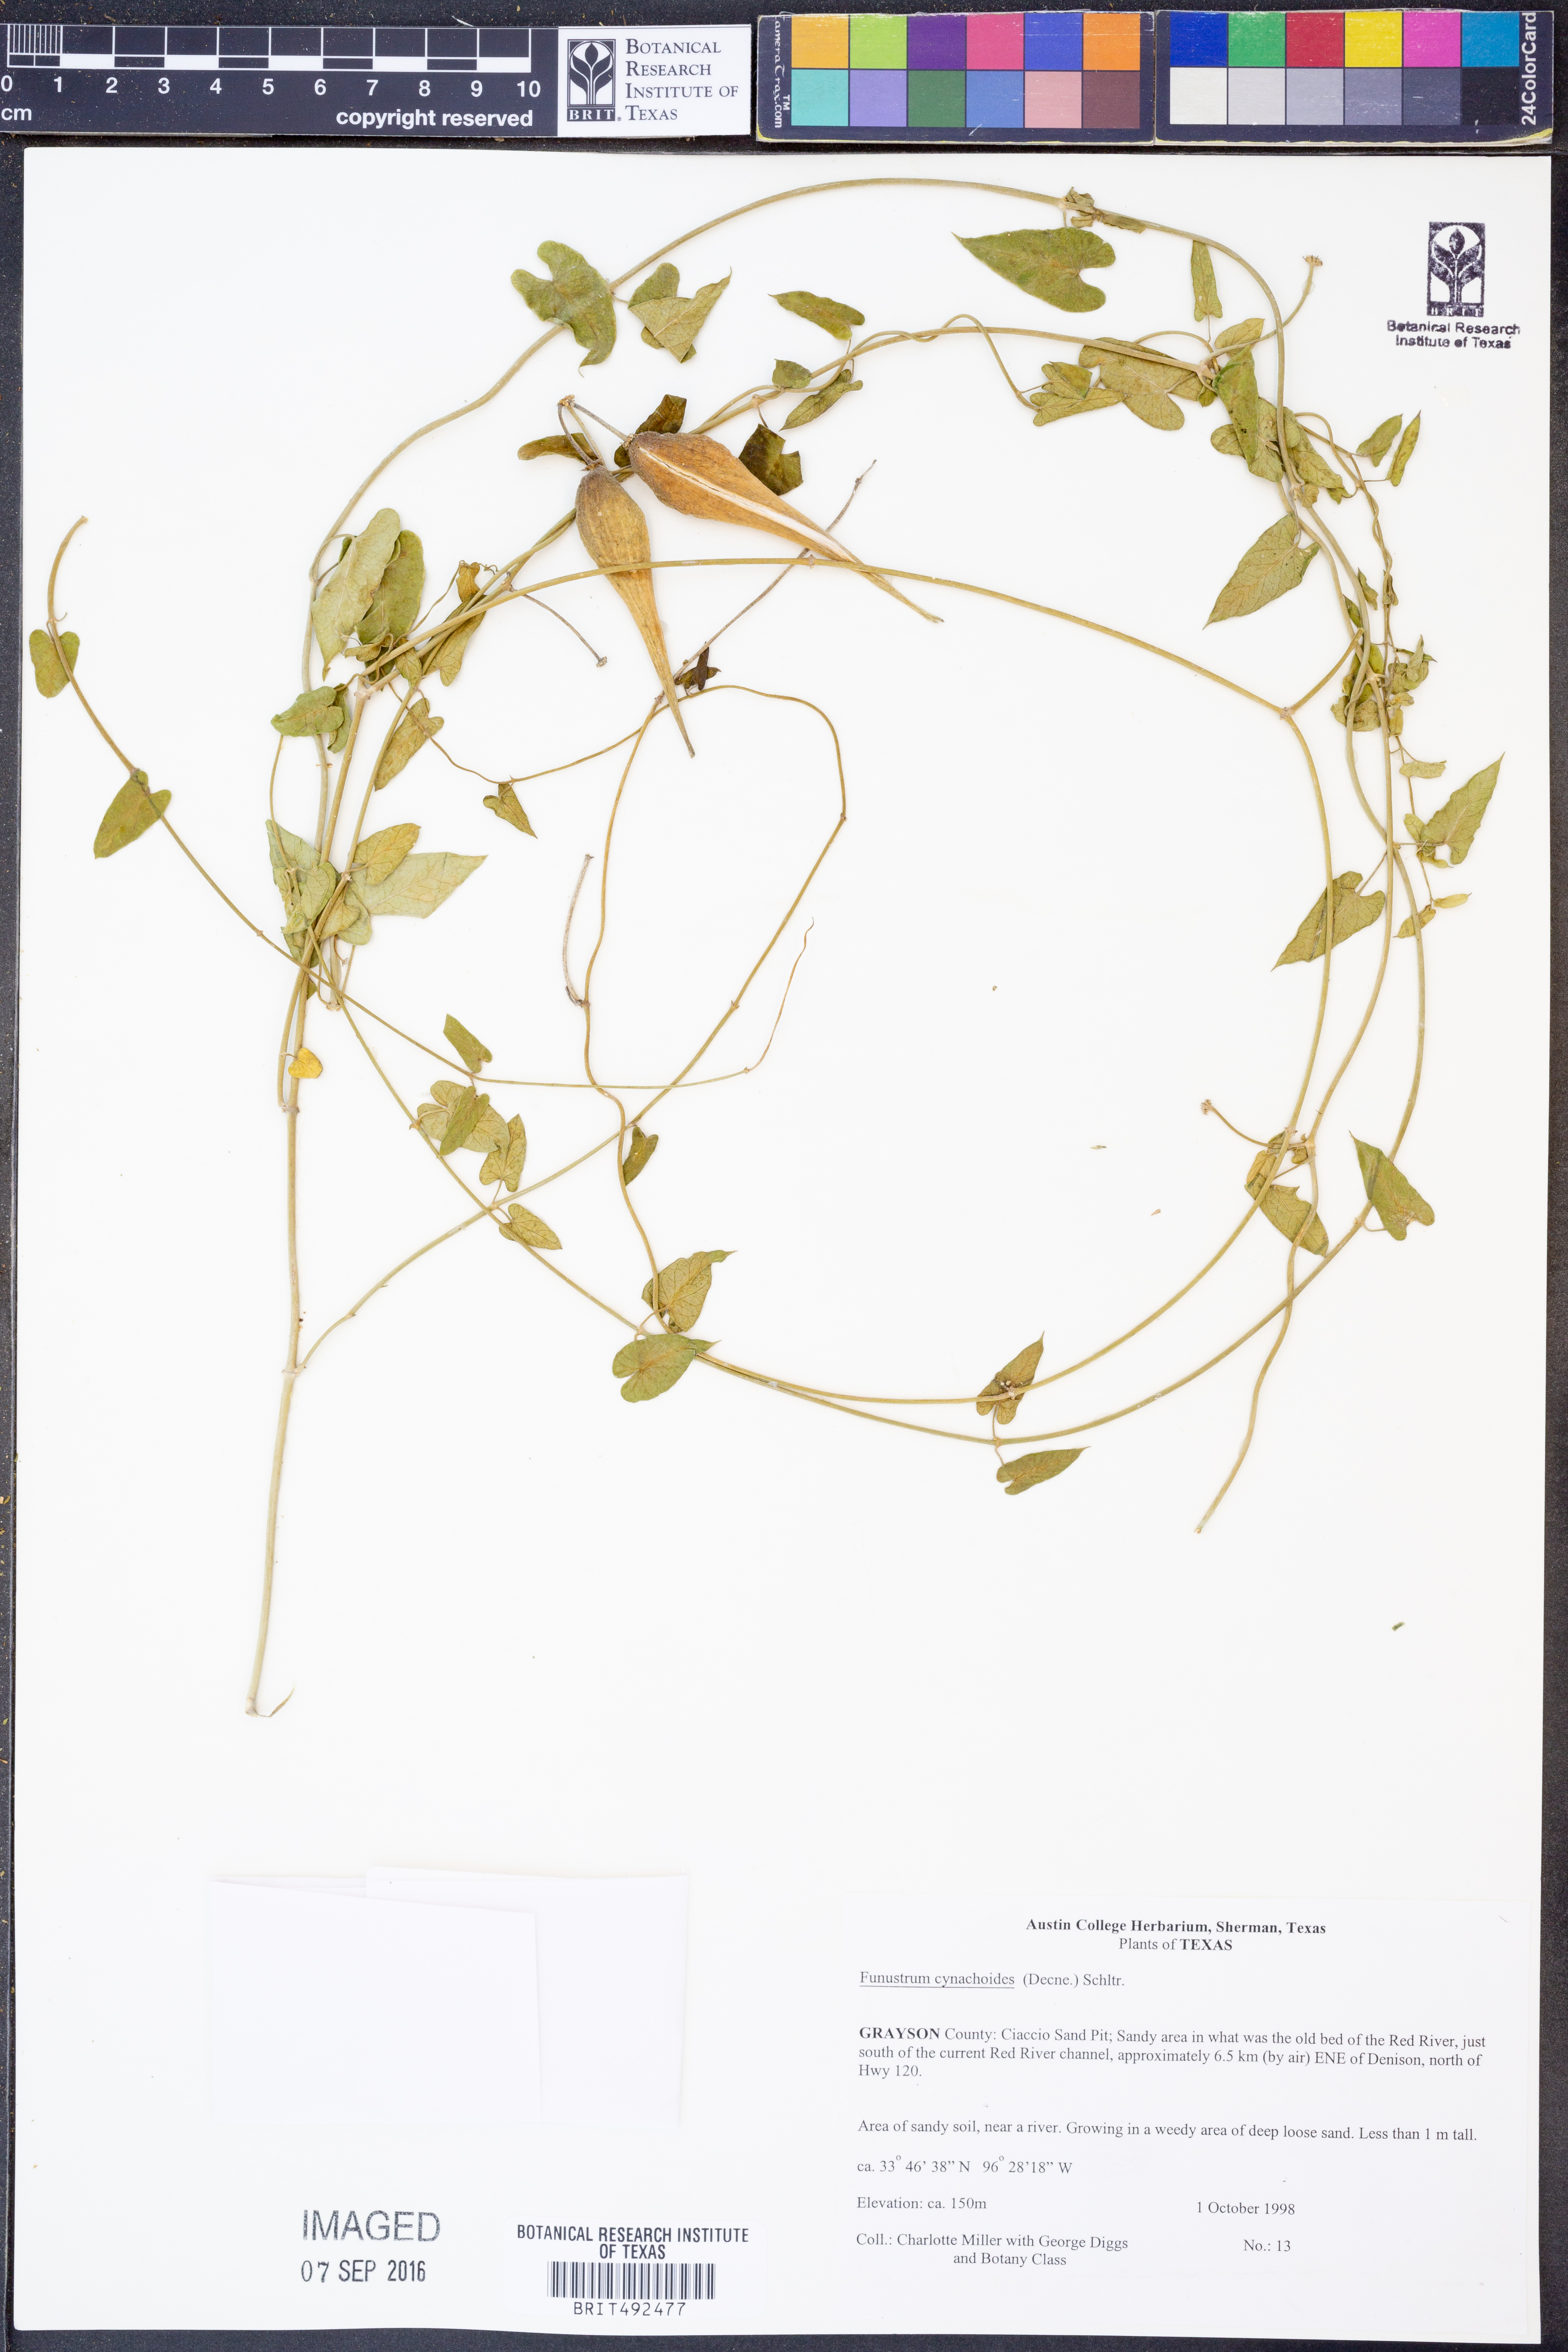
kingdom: Plantae
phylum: Tracheophyta
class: Magnoliopsida
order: Gentianales
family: Apocynaceae
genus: Funastrum
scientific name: Funastrum cynanchoides
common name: Climbing-milkweed
